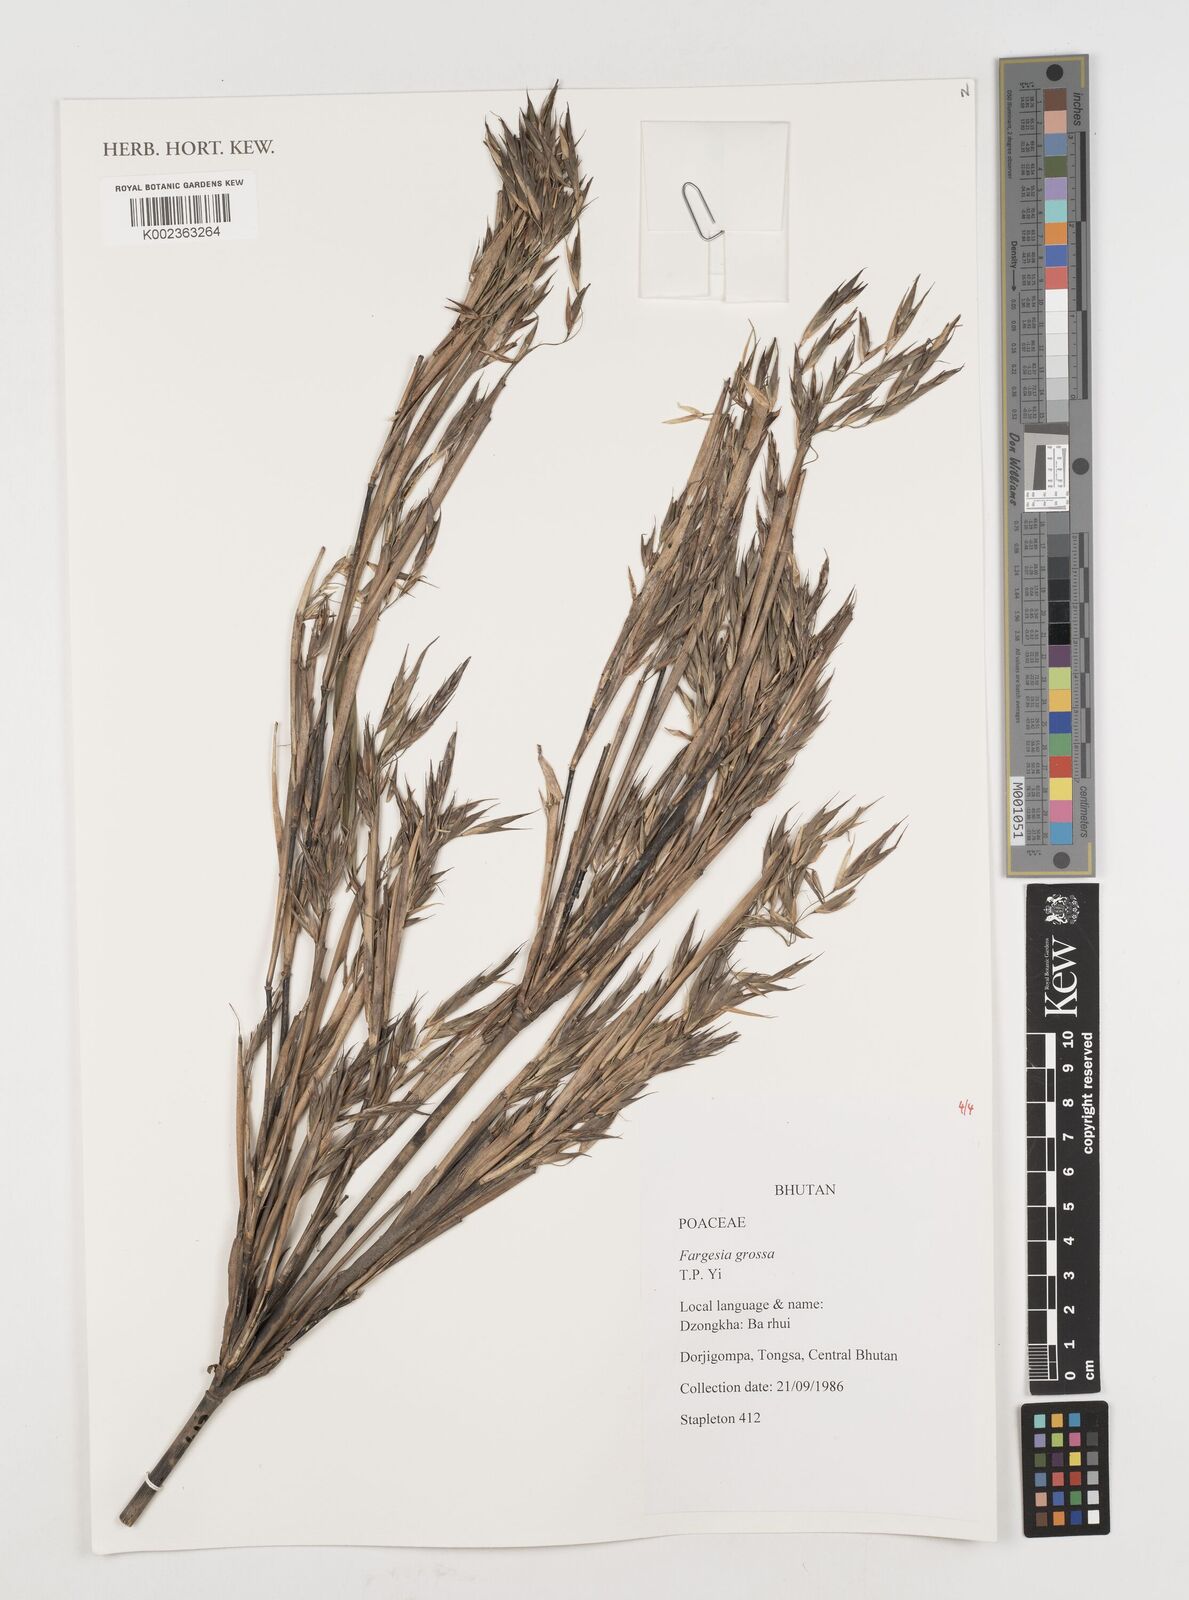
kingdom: Plantae
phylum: Tracheophyta
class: Liliopsida
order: Poales
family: Poaceae
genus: Borinda
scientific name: Borinda grossa
